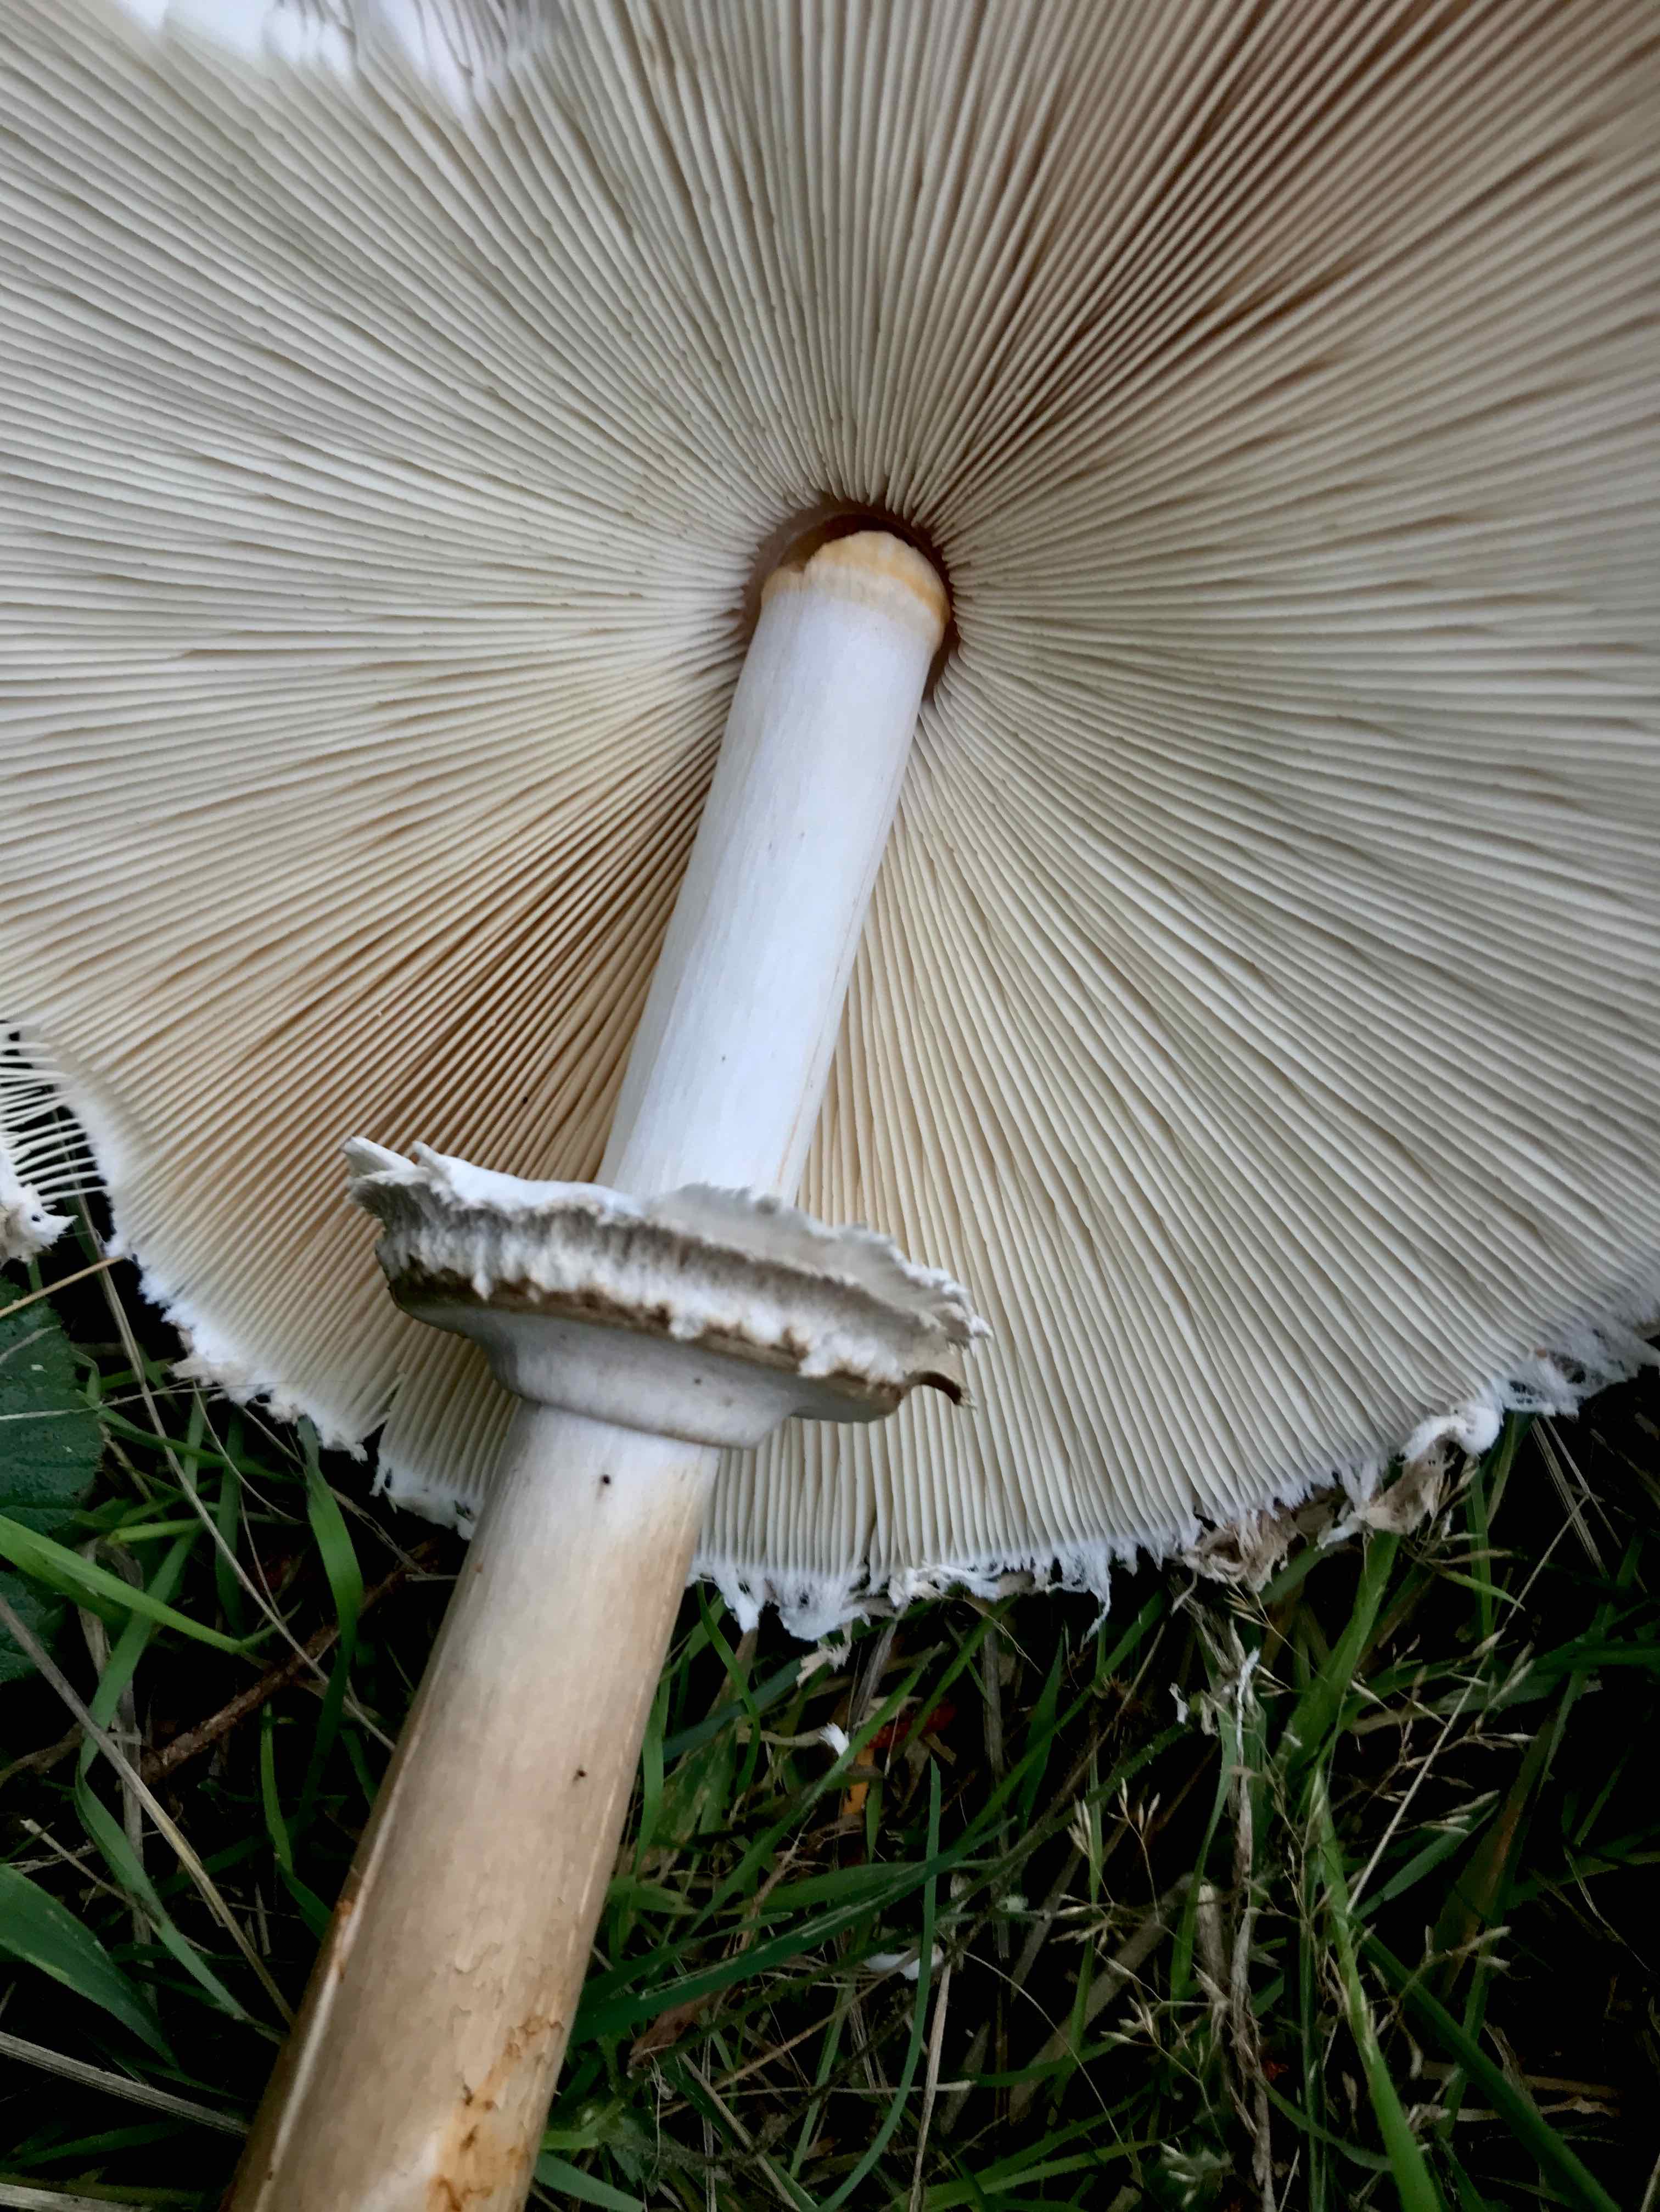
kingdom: Fungi
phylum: Basidiomycota
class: Agaricomycetes
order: Agaricales
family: Agaricaceae
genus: Chlorophyllum
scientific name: Chlorophyllum rhacodes
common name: ægte rabarberhat
